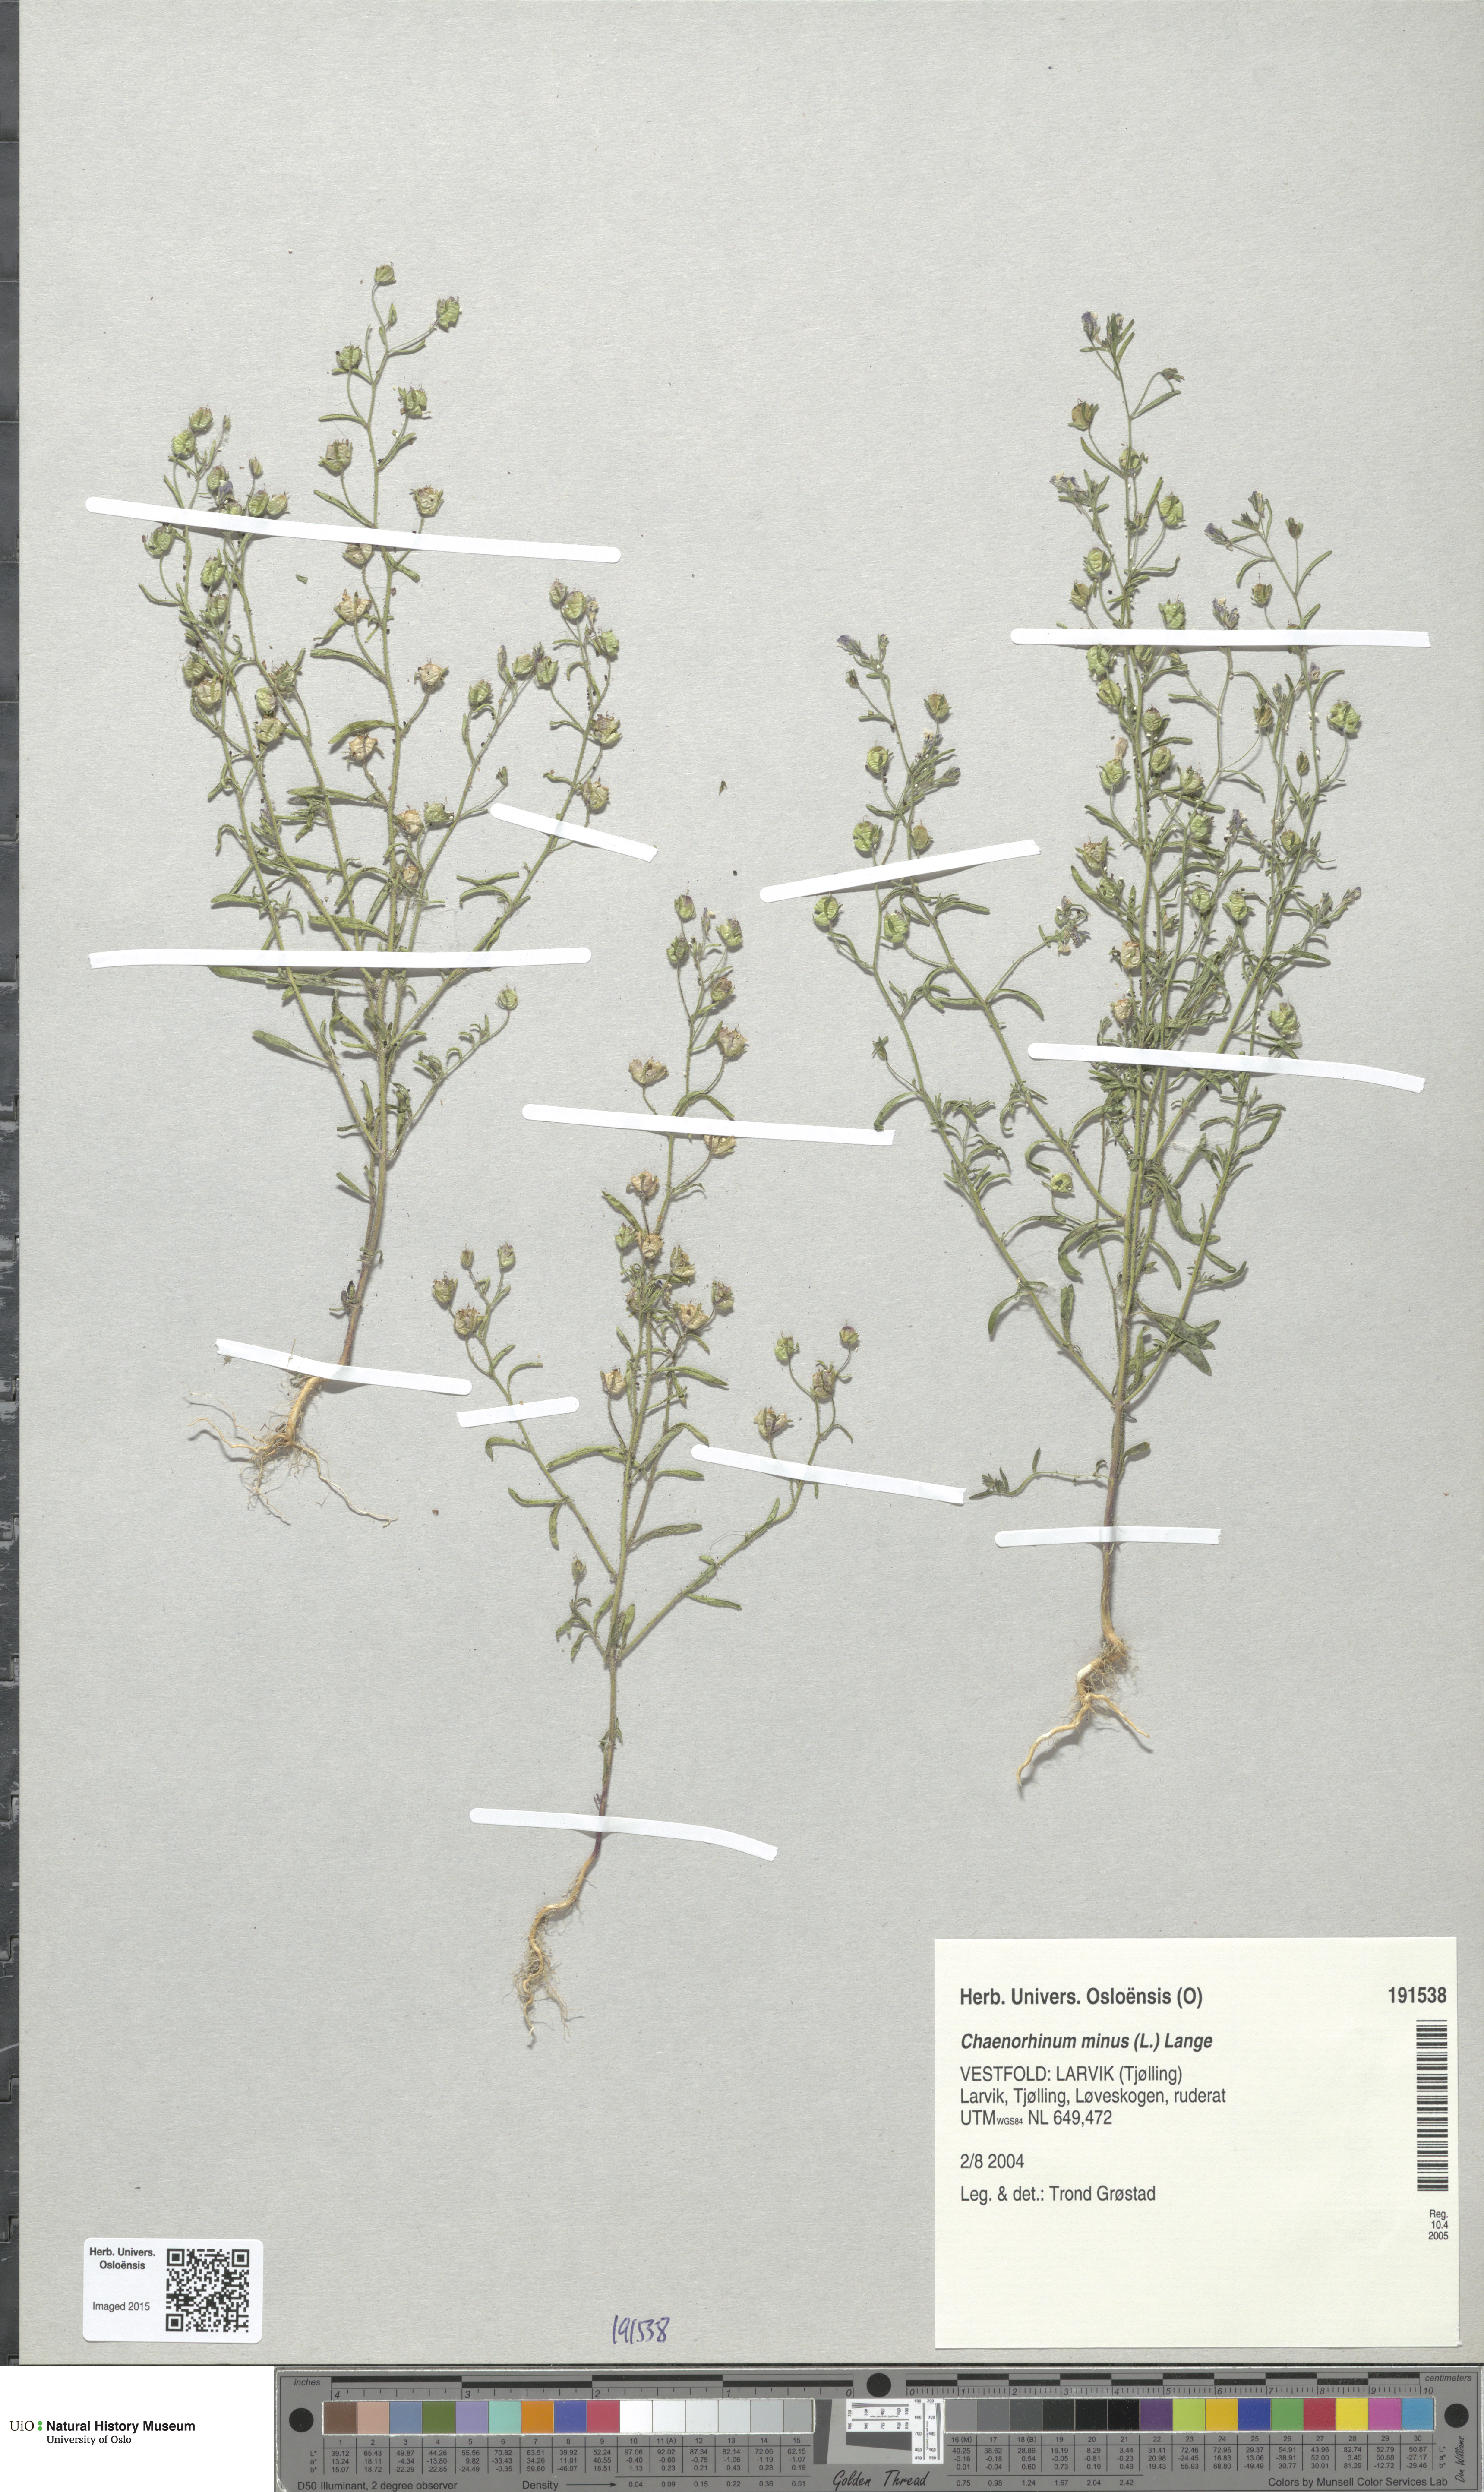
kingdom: Plantae
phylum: Tracheophyta
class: Magnoliopsida
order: Lamiales
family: Plantaginaceae
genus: Chaenorhinum
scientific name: Chaenorhinum minus
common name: Dwarf snapdragon
